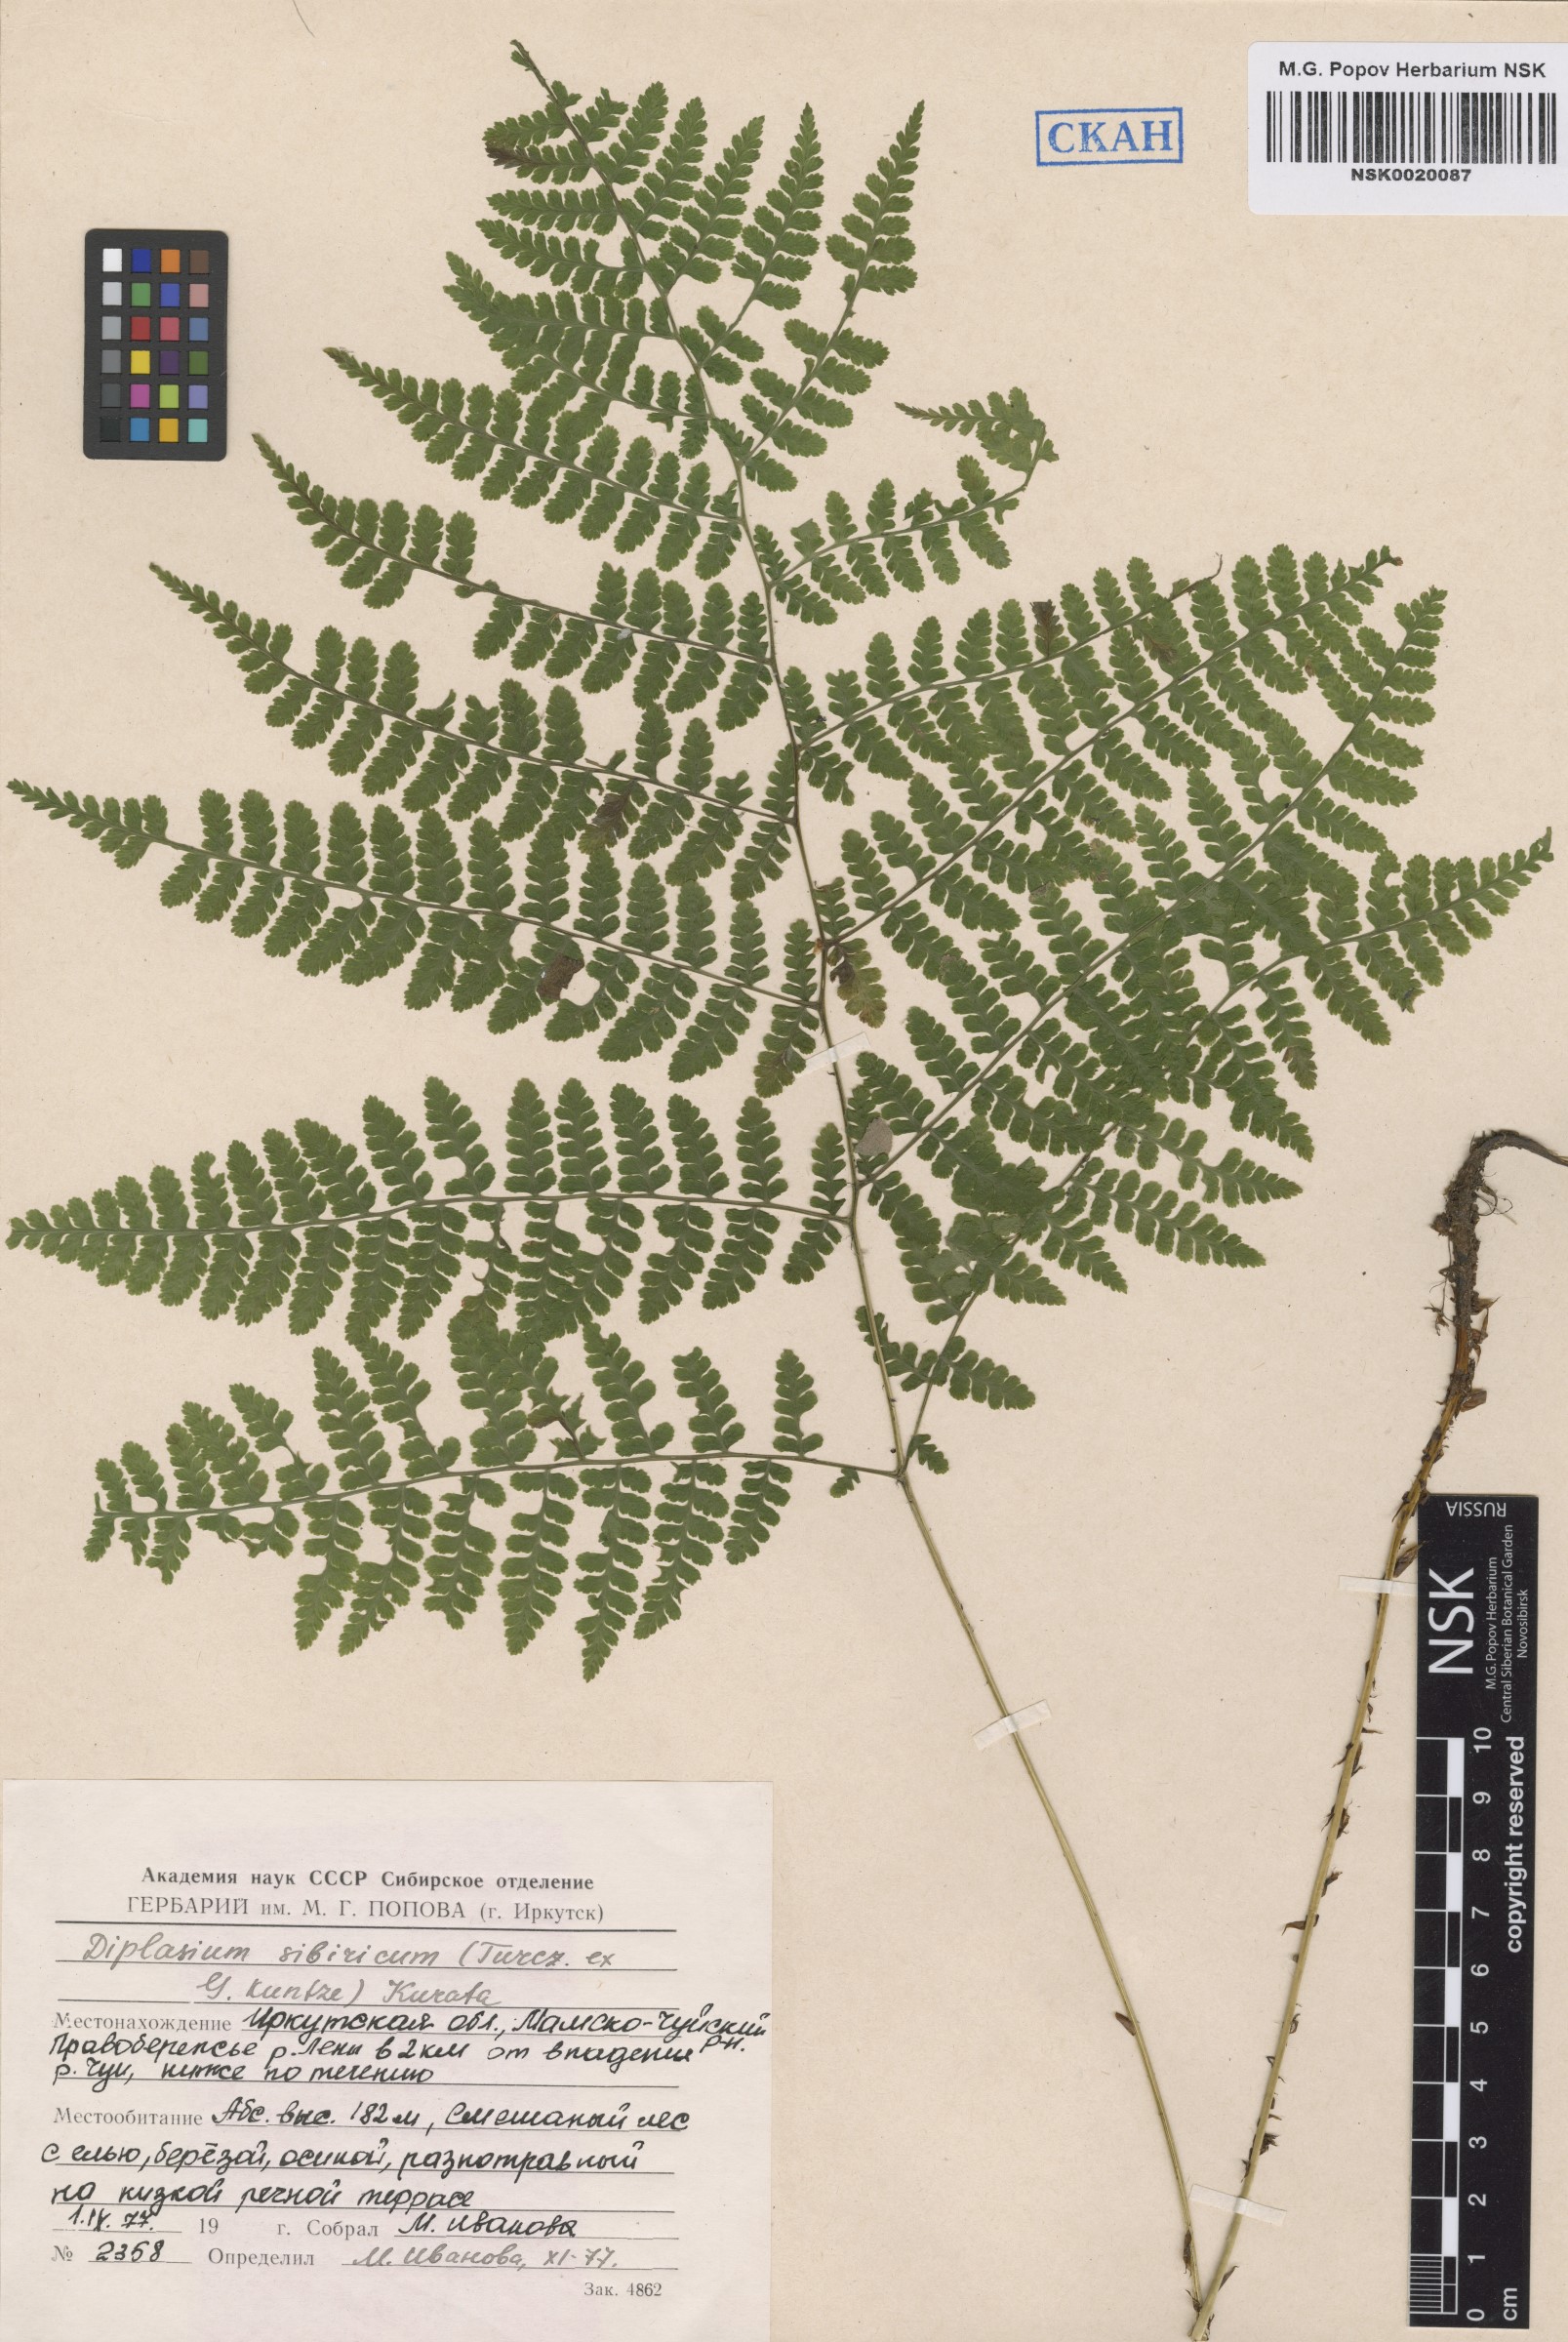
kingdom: Plantae
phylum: Tracheophyta
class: Polypodiopsida
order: Polypodiales
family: Athyriaceae
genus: Diplazium
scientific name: Diplazium sibiricum
